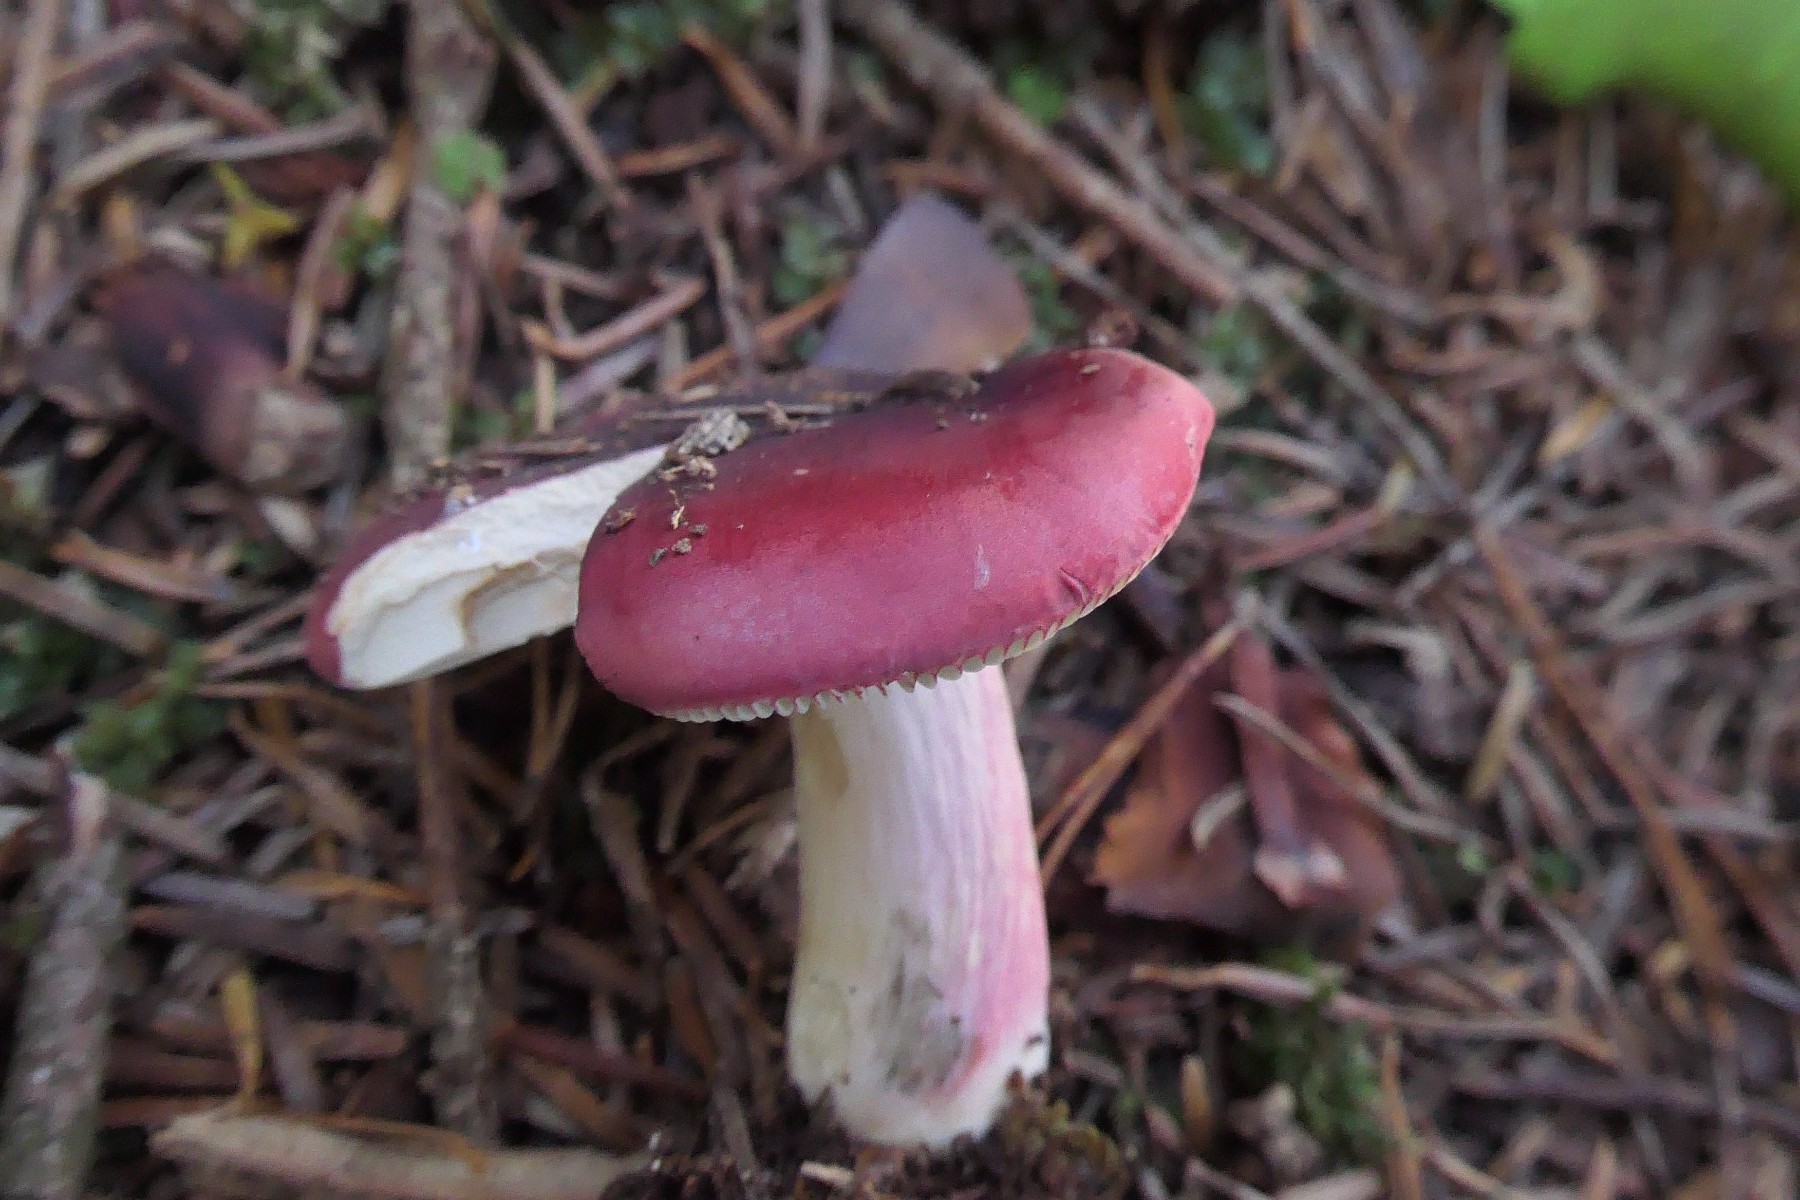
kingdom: Fungi
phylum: Basidiomycota
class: Agaricomycetes
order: Russulales
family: Russulaceae
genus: Russula
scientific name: Russula xerampelina
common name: hummer-skørhat
